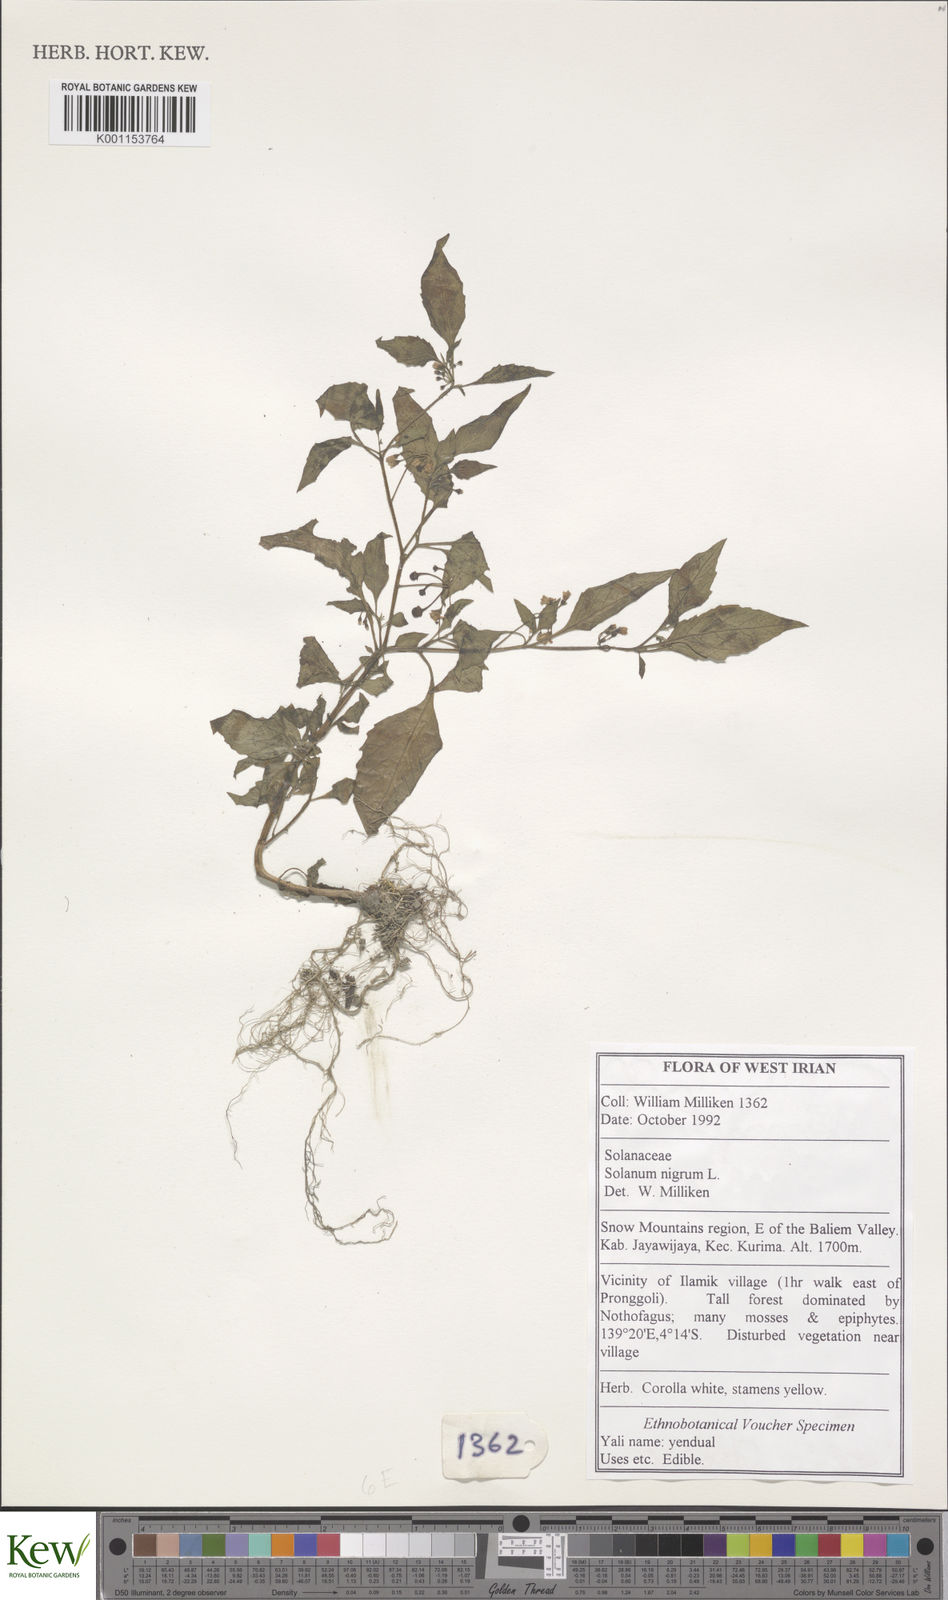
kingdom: Plantae
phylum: Tracheophyta
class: Magnoliopsida
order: Solanales
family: Solanaceae
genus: Solanum
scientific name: Solanum nigrum
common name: Black nightshade
